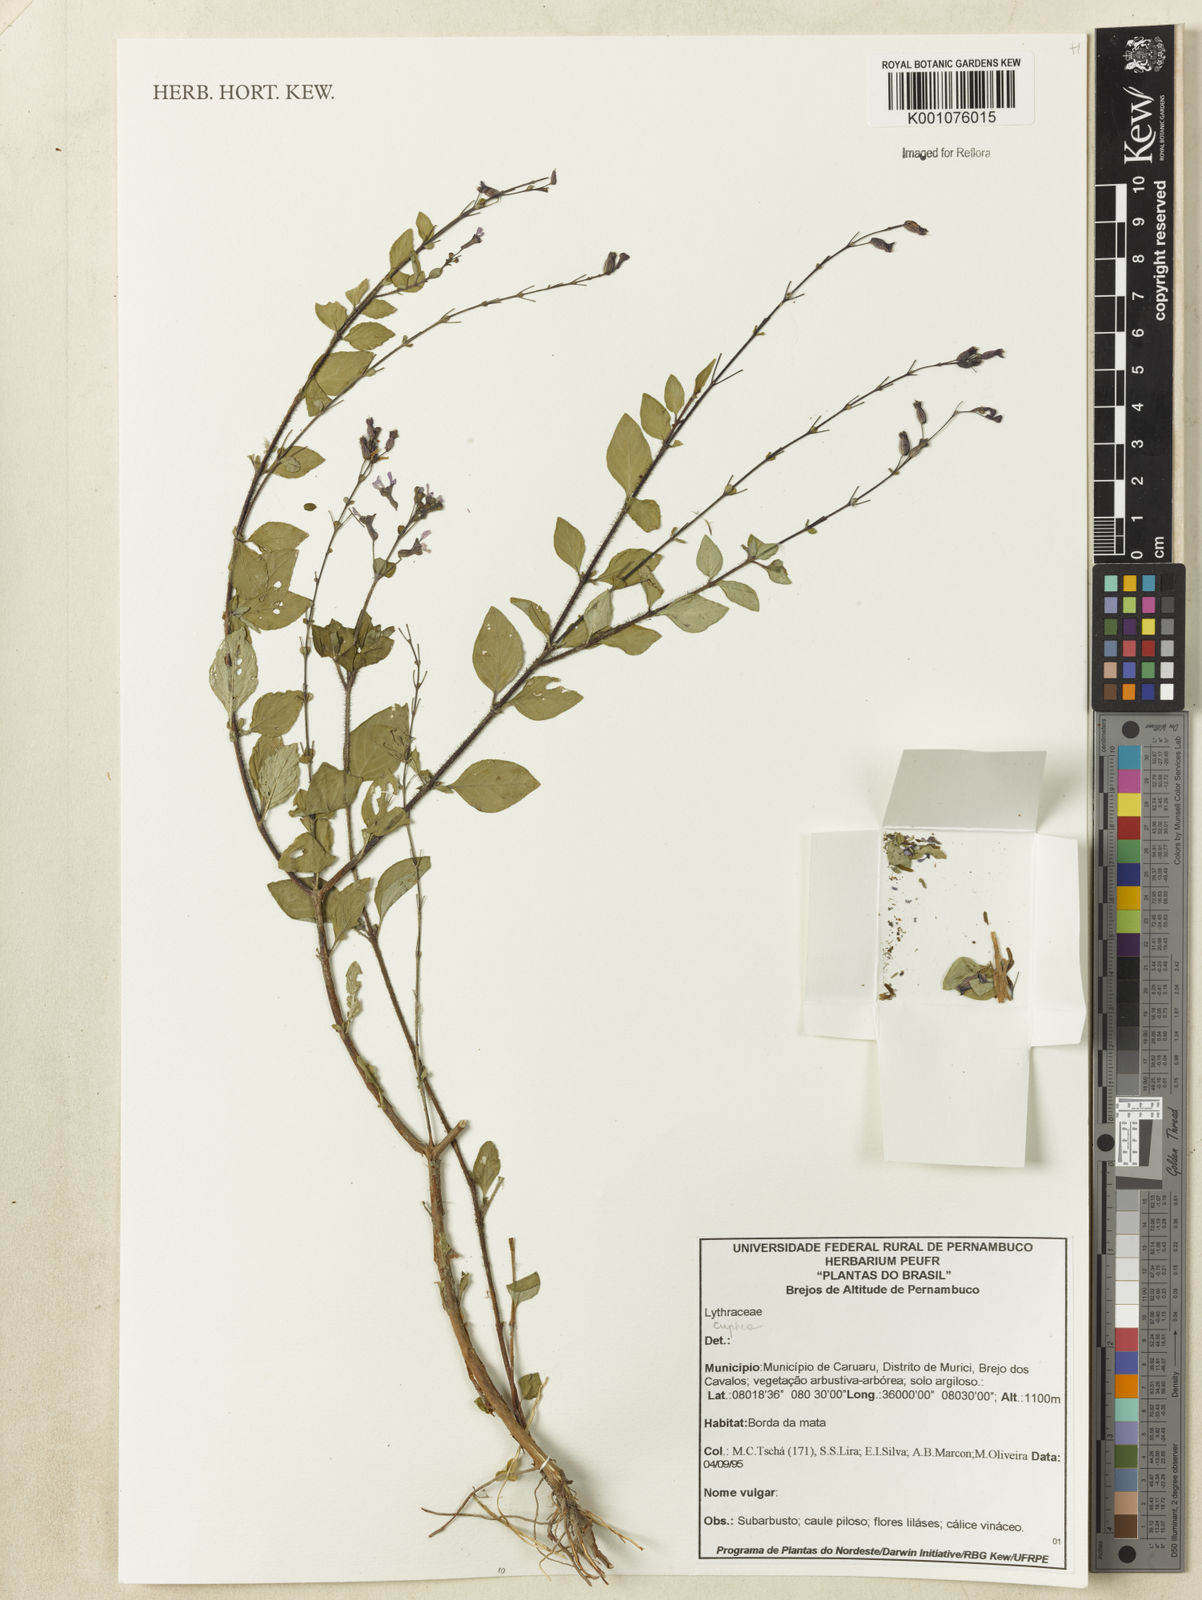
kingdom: Plantae
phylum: Tracheophyta
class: Magnoliopsida
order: Myrtales
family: Lythraceae
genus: Cuphea
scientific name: Cuphea
